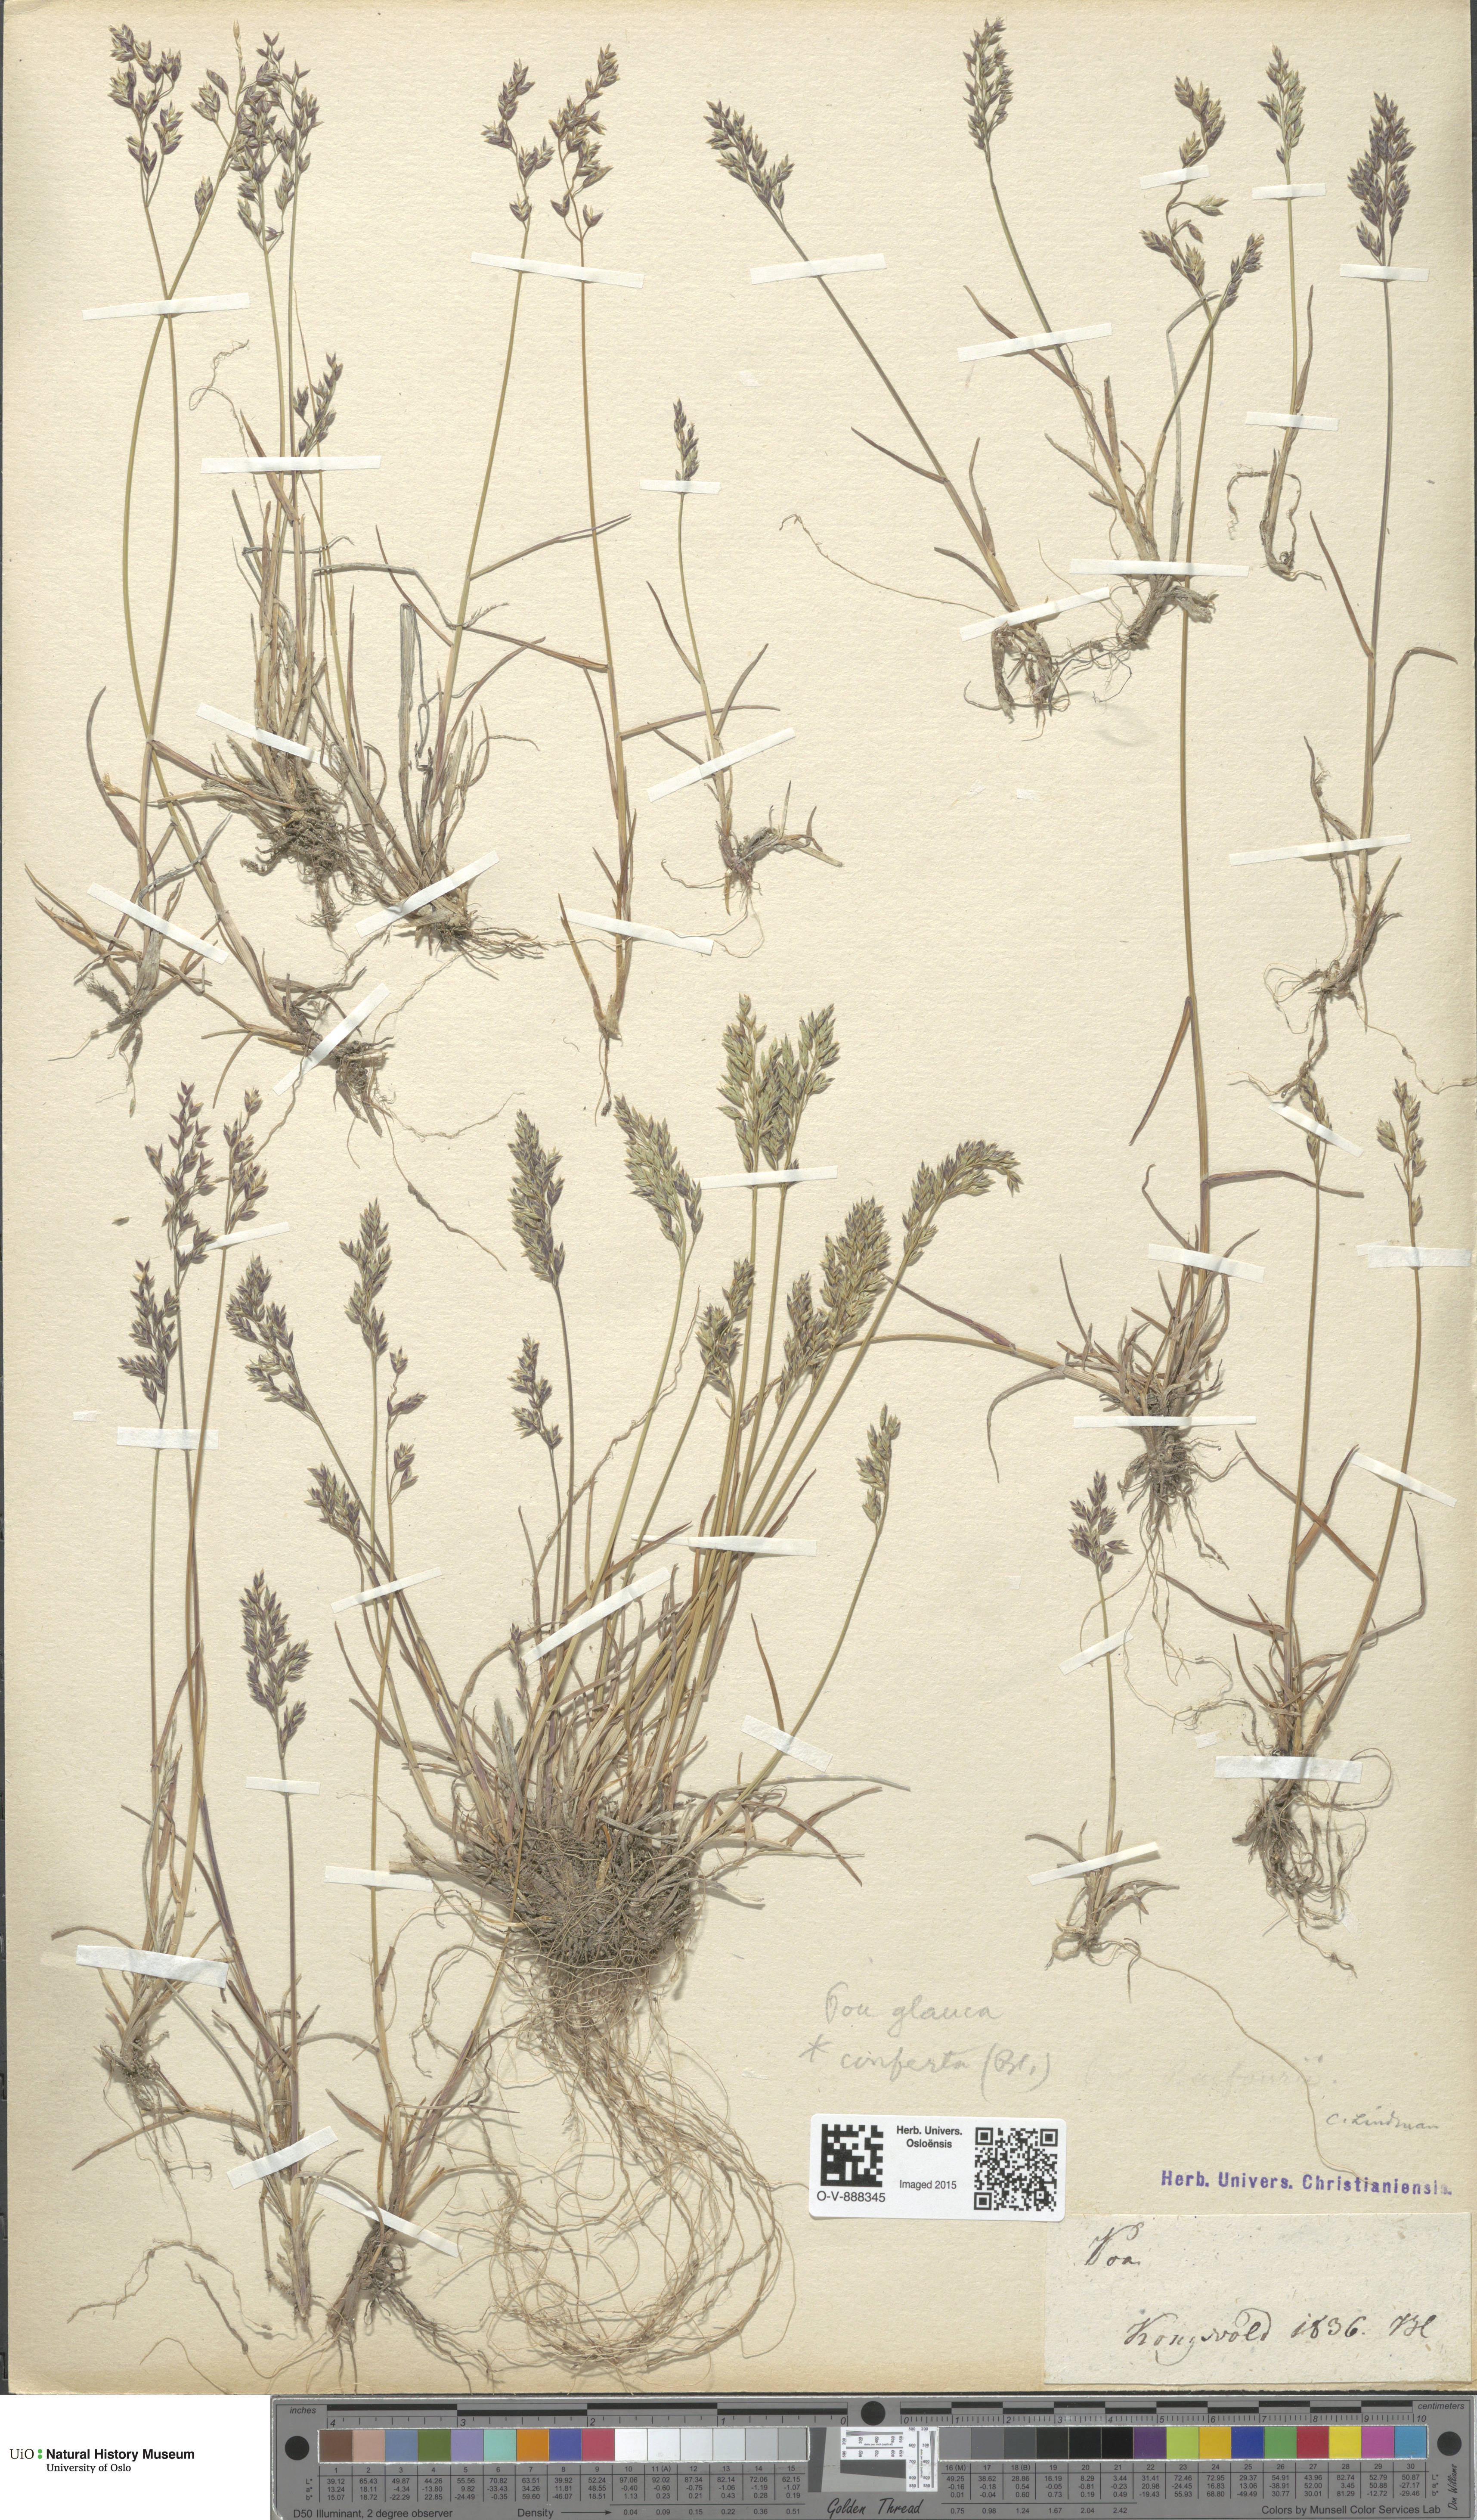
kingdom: Plantae
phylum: Tracheophyta
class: Liliopsida
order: Poales
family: Poaceae
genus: Poa
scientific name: Poa glauca
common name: Glaucous bluegrass
